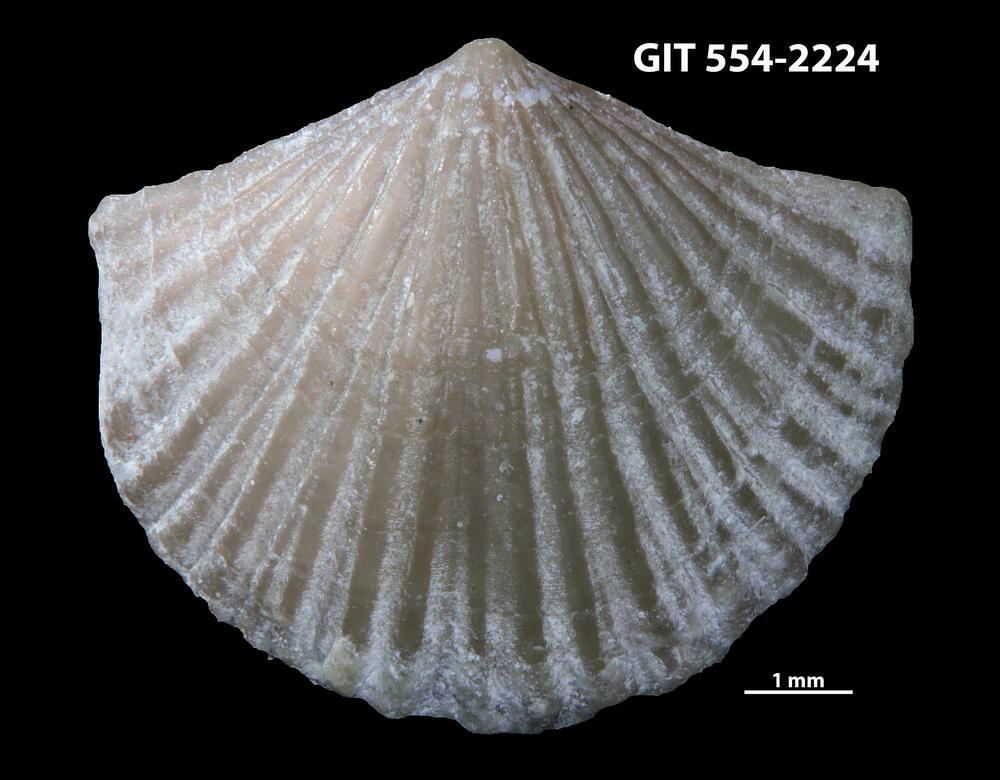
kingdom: Animalia
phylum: Brachiopoda
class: Rhynchonellata
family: Skenidiidae
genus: Skenidioides
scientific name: Skenidioides hymiri
